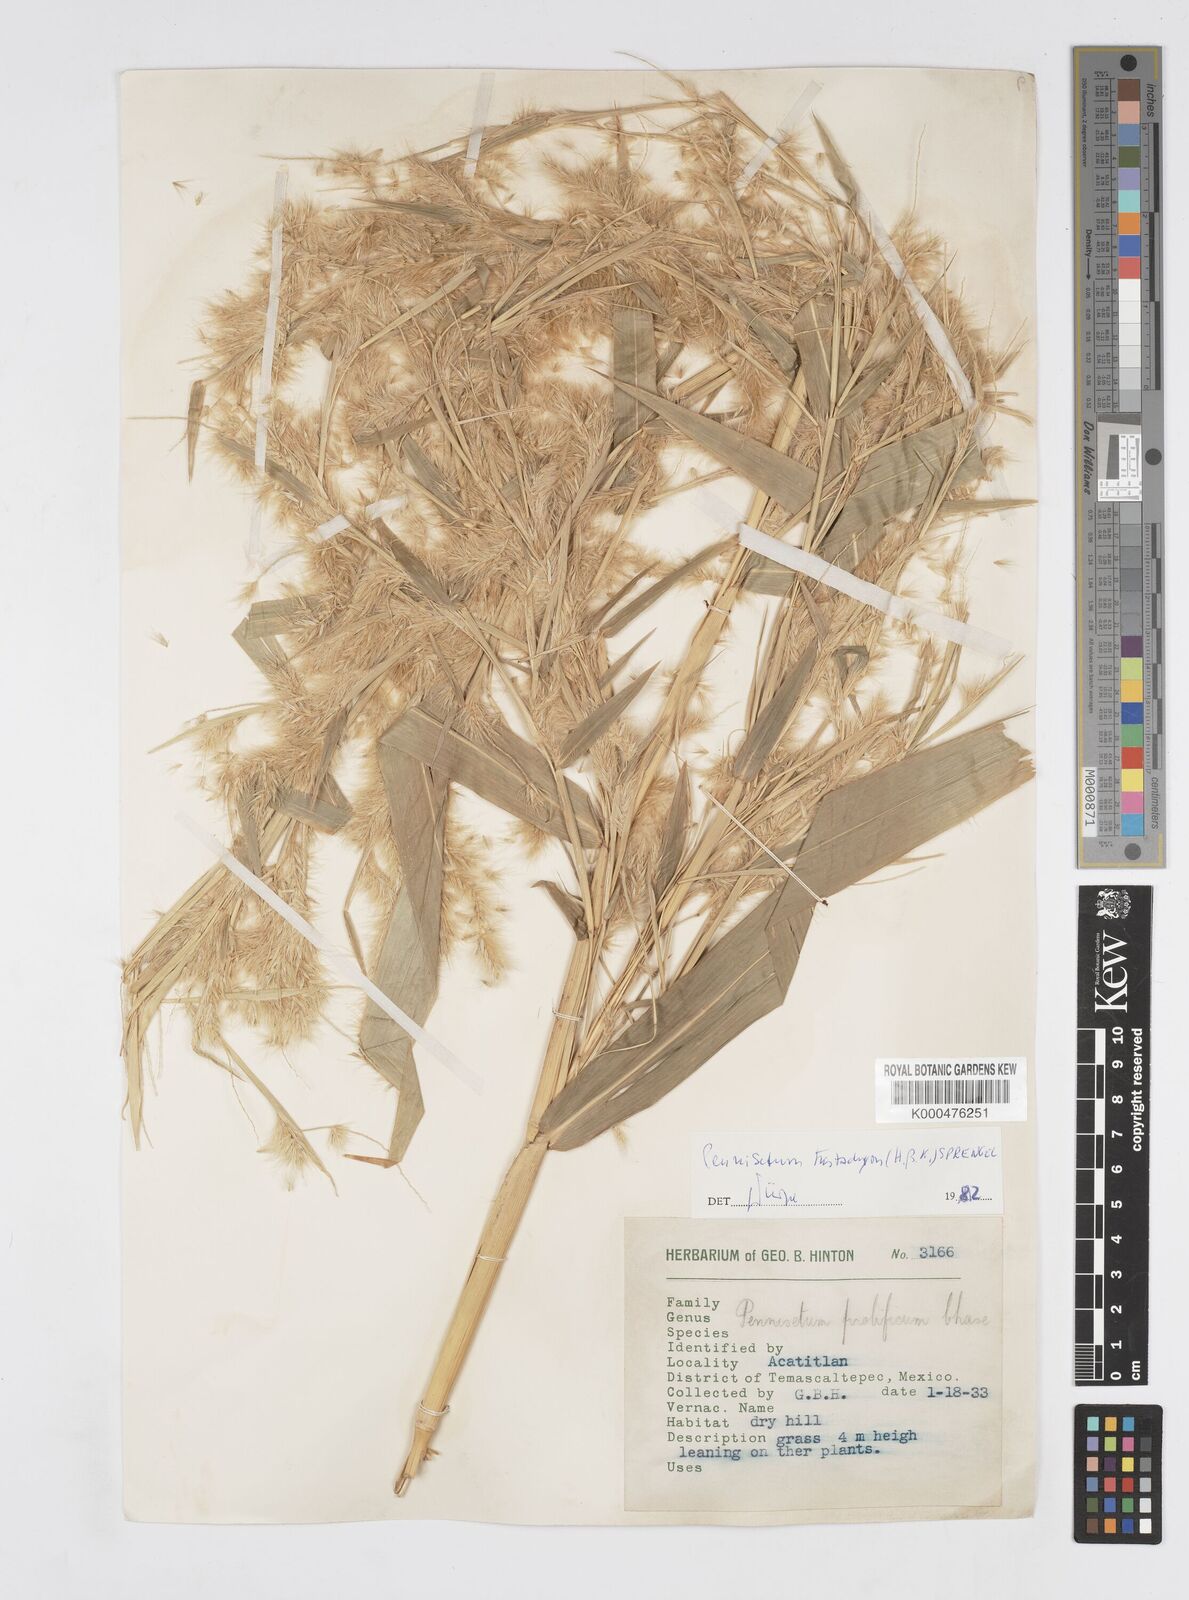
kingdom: Plantae
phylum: Tracheophyta
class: Liliopsida
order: Poales
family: Poaceae
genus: Cenchrus
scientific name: Cenchrus prolificus
